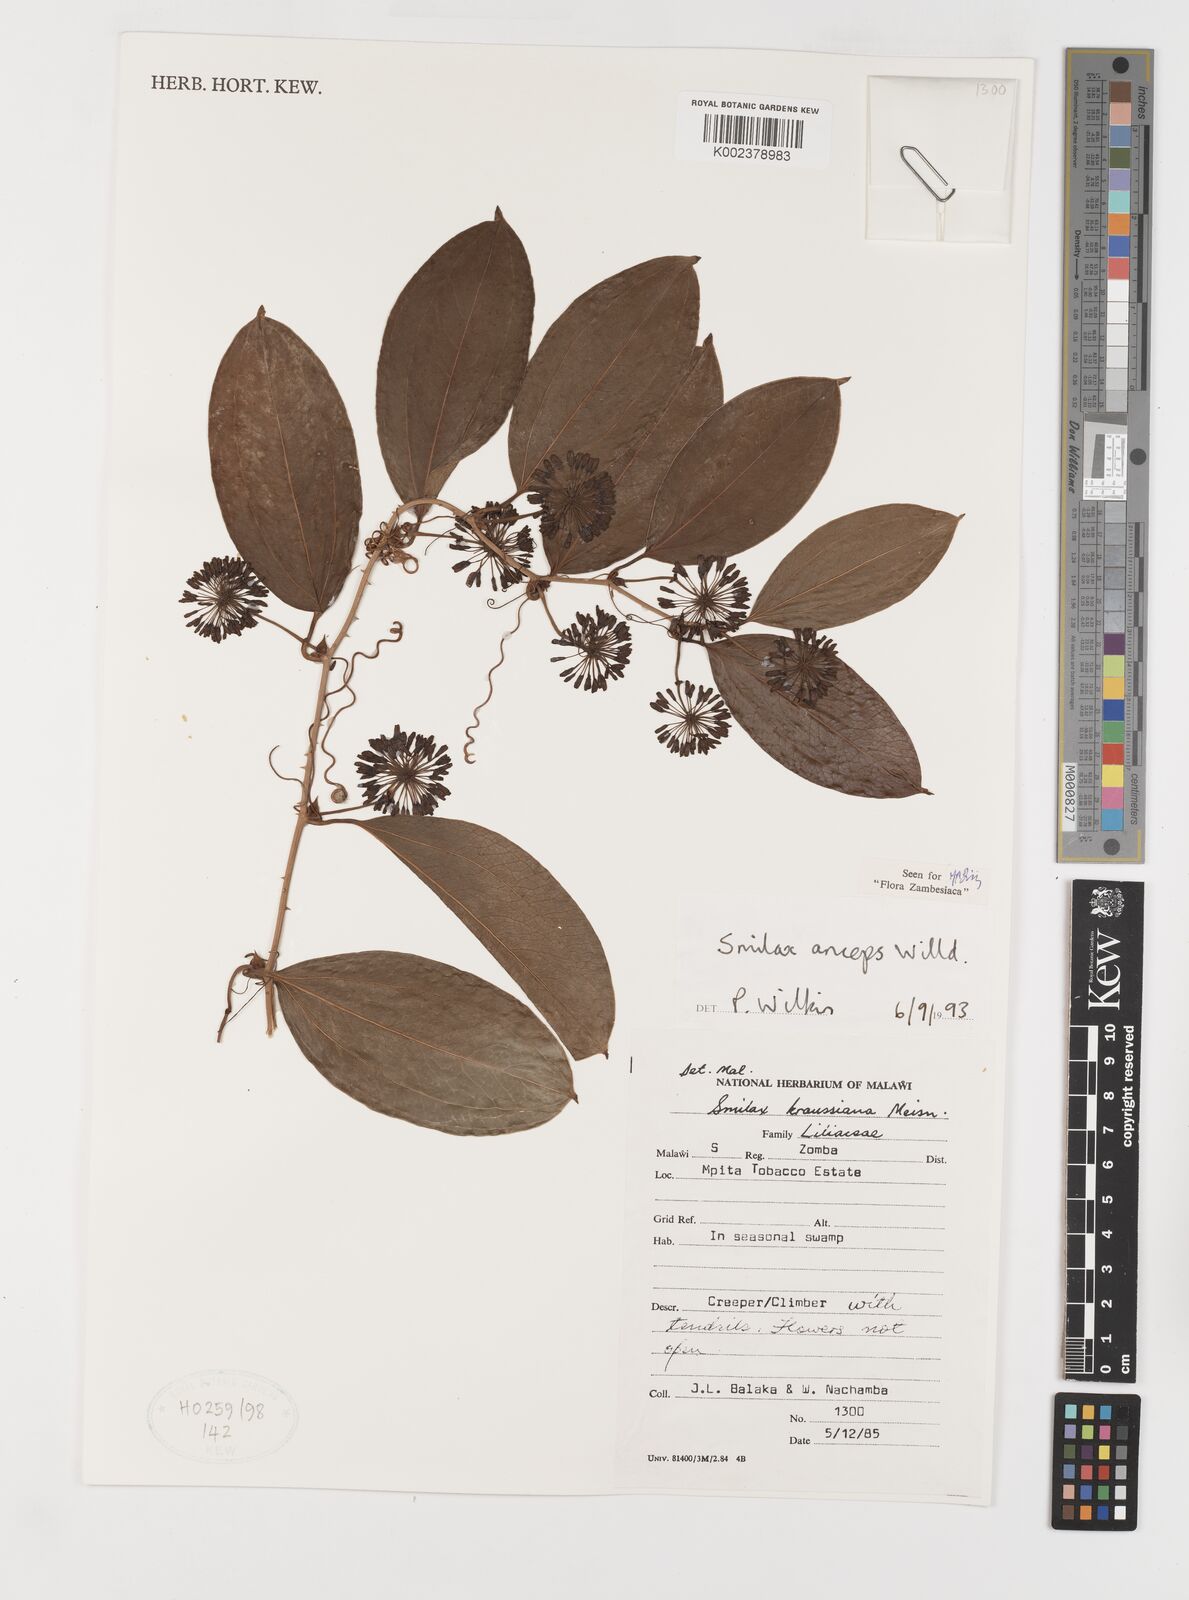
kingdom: Plantae
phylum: Tracheophyta
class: Liliopsida
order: Liliales
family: Smilacaceae
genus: Smilax
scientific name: Smilax anceps
